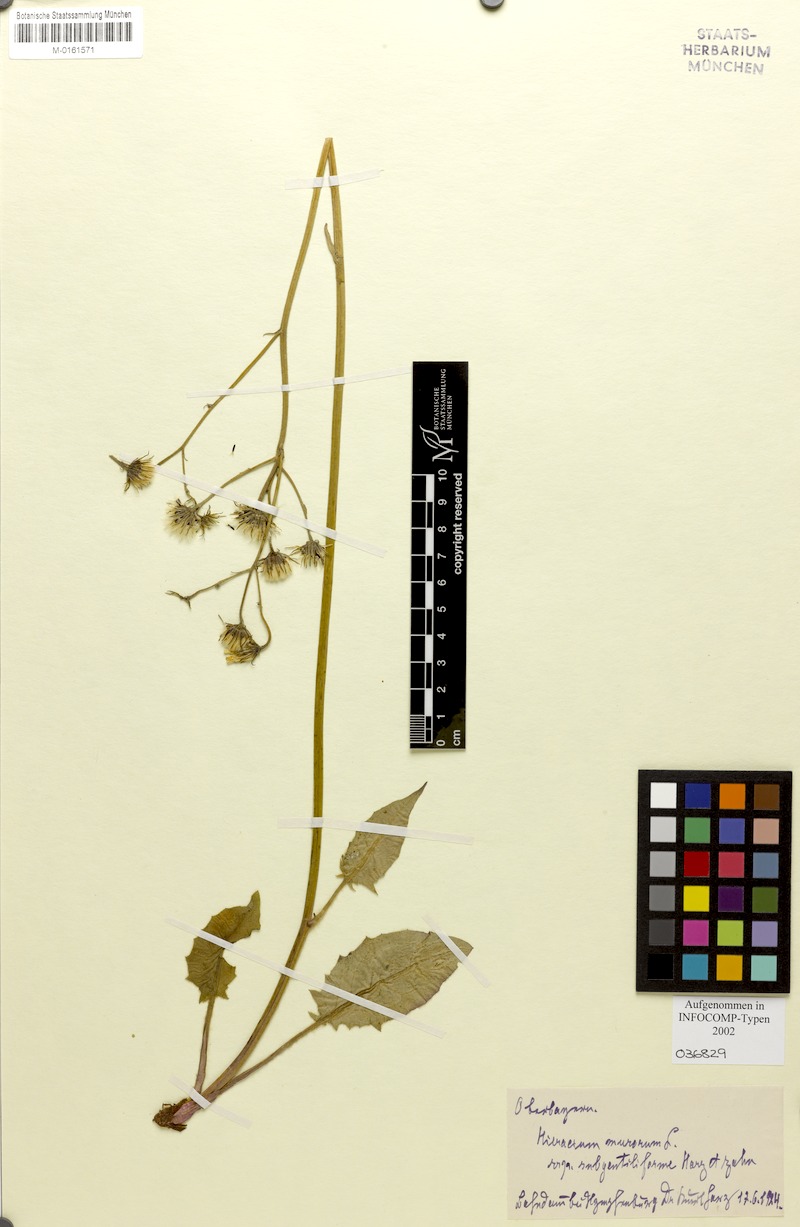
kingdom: Plantae
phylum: Tracheophyta
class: Magnoliopsida
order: Asterales
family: Asteraceae
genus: Hieracium
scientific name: Hieracium murorum
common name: Wall hawkweed
